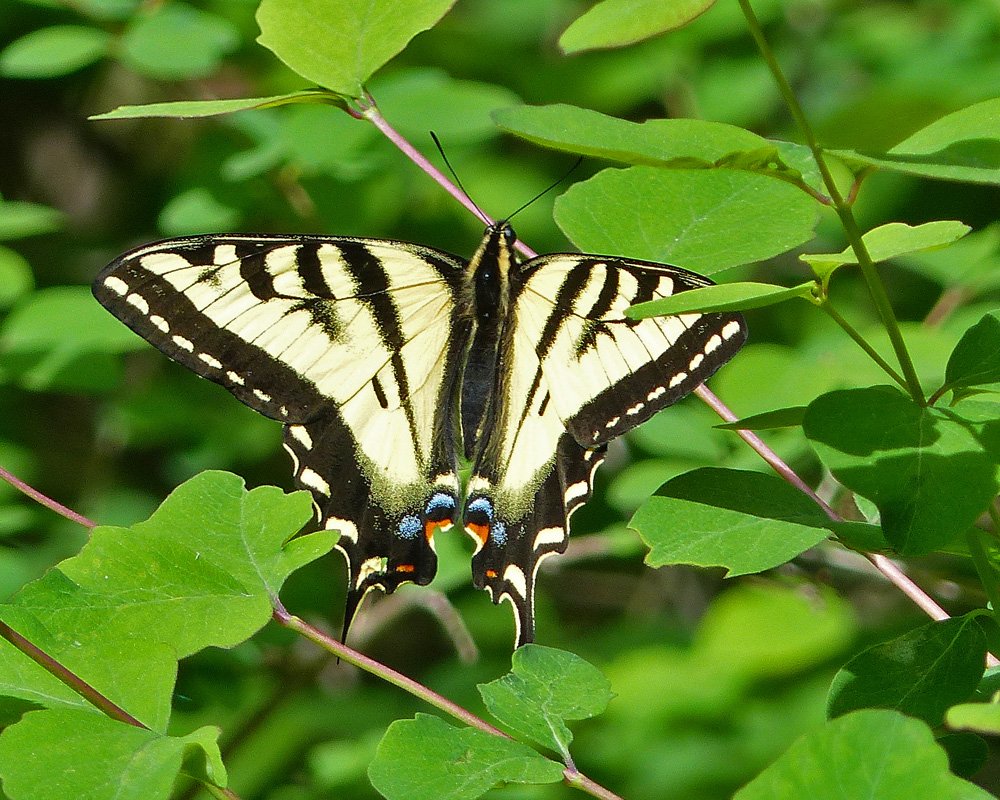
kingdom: Animalia
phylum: Arthropoda
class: Insecta
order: Lepidoptera
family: Papilionidae
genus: Pterourus
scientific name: Pterourus rutulus
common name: Western Tiger Swallowtail
